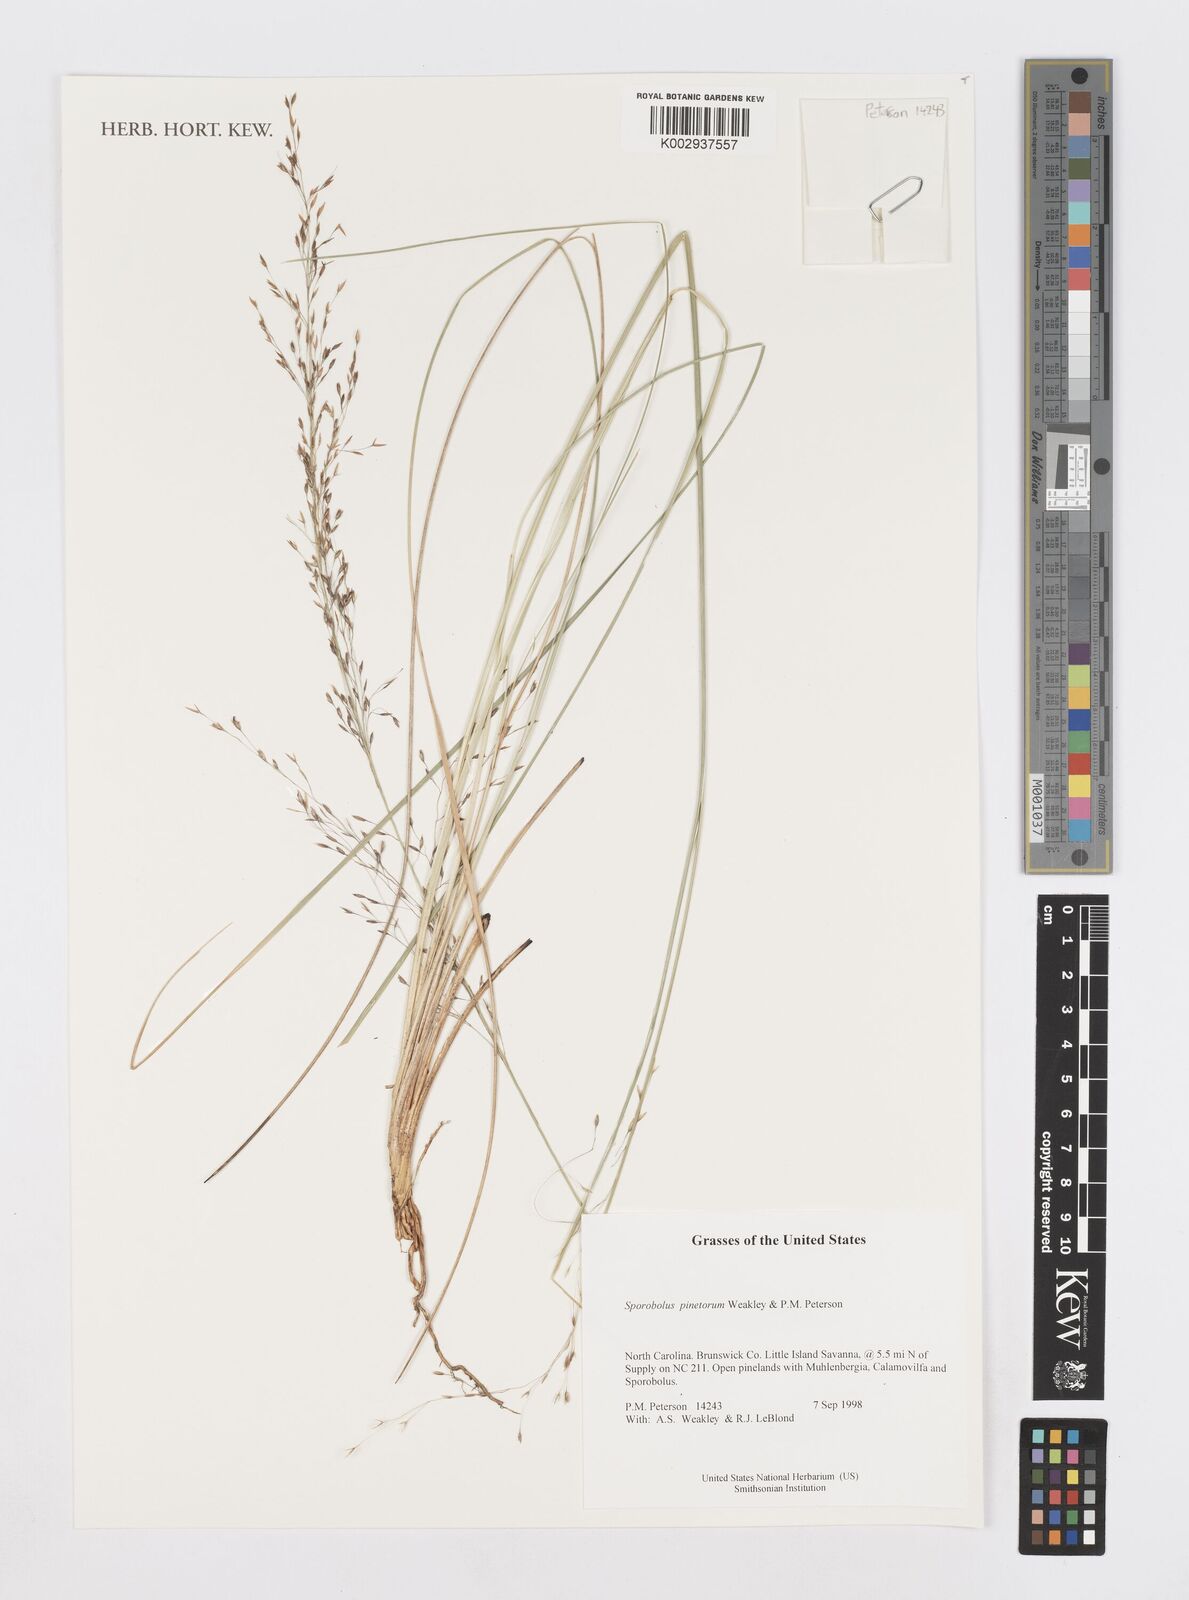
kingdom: Plantae
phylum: Tracheophyta
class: Liliopsida
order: Poales
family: Poaceae
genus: Sporobolus
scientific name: Sporobolus pinetorum
